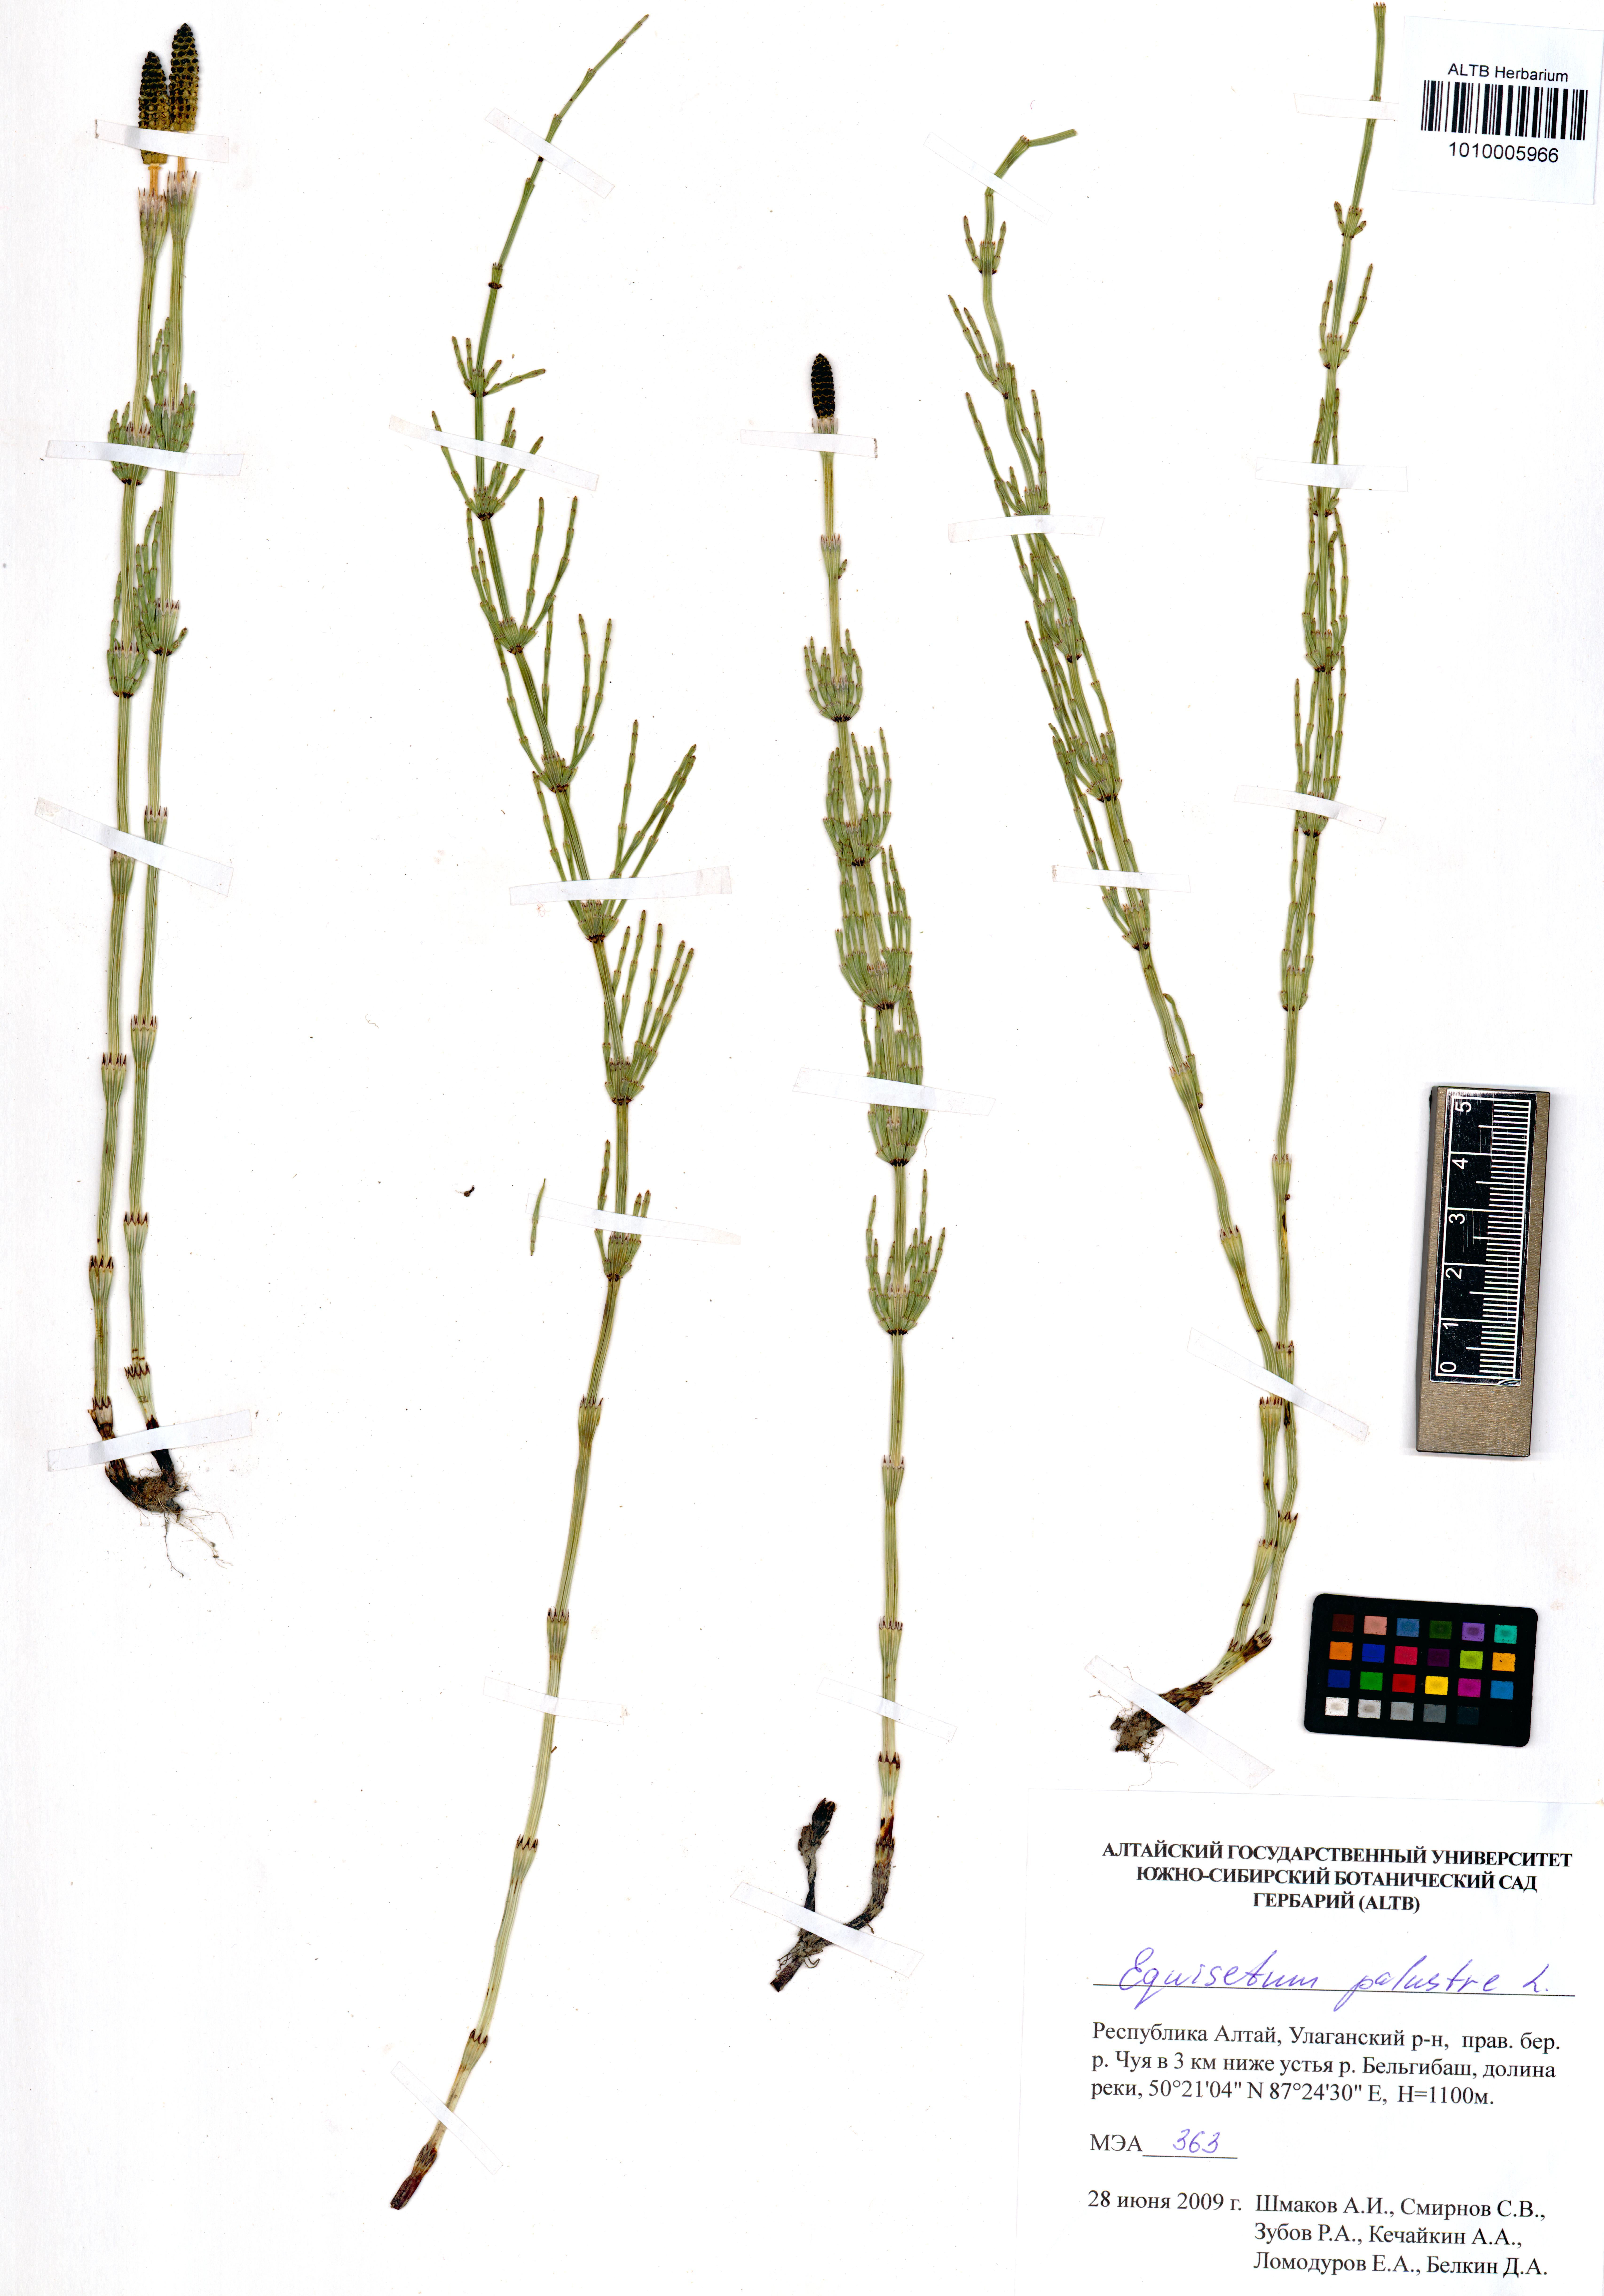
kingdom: Plantae
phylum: Tracheophyta
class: Polypodiopsida
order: Equisetales
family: Equisetaceae
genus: Equisetum
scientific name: Equisetum palustre
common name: Marsh horsetail
